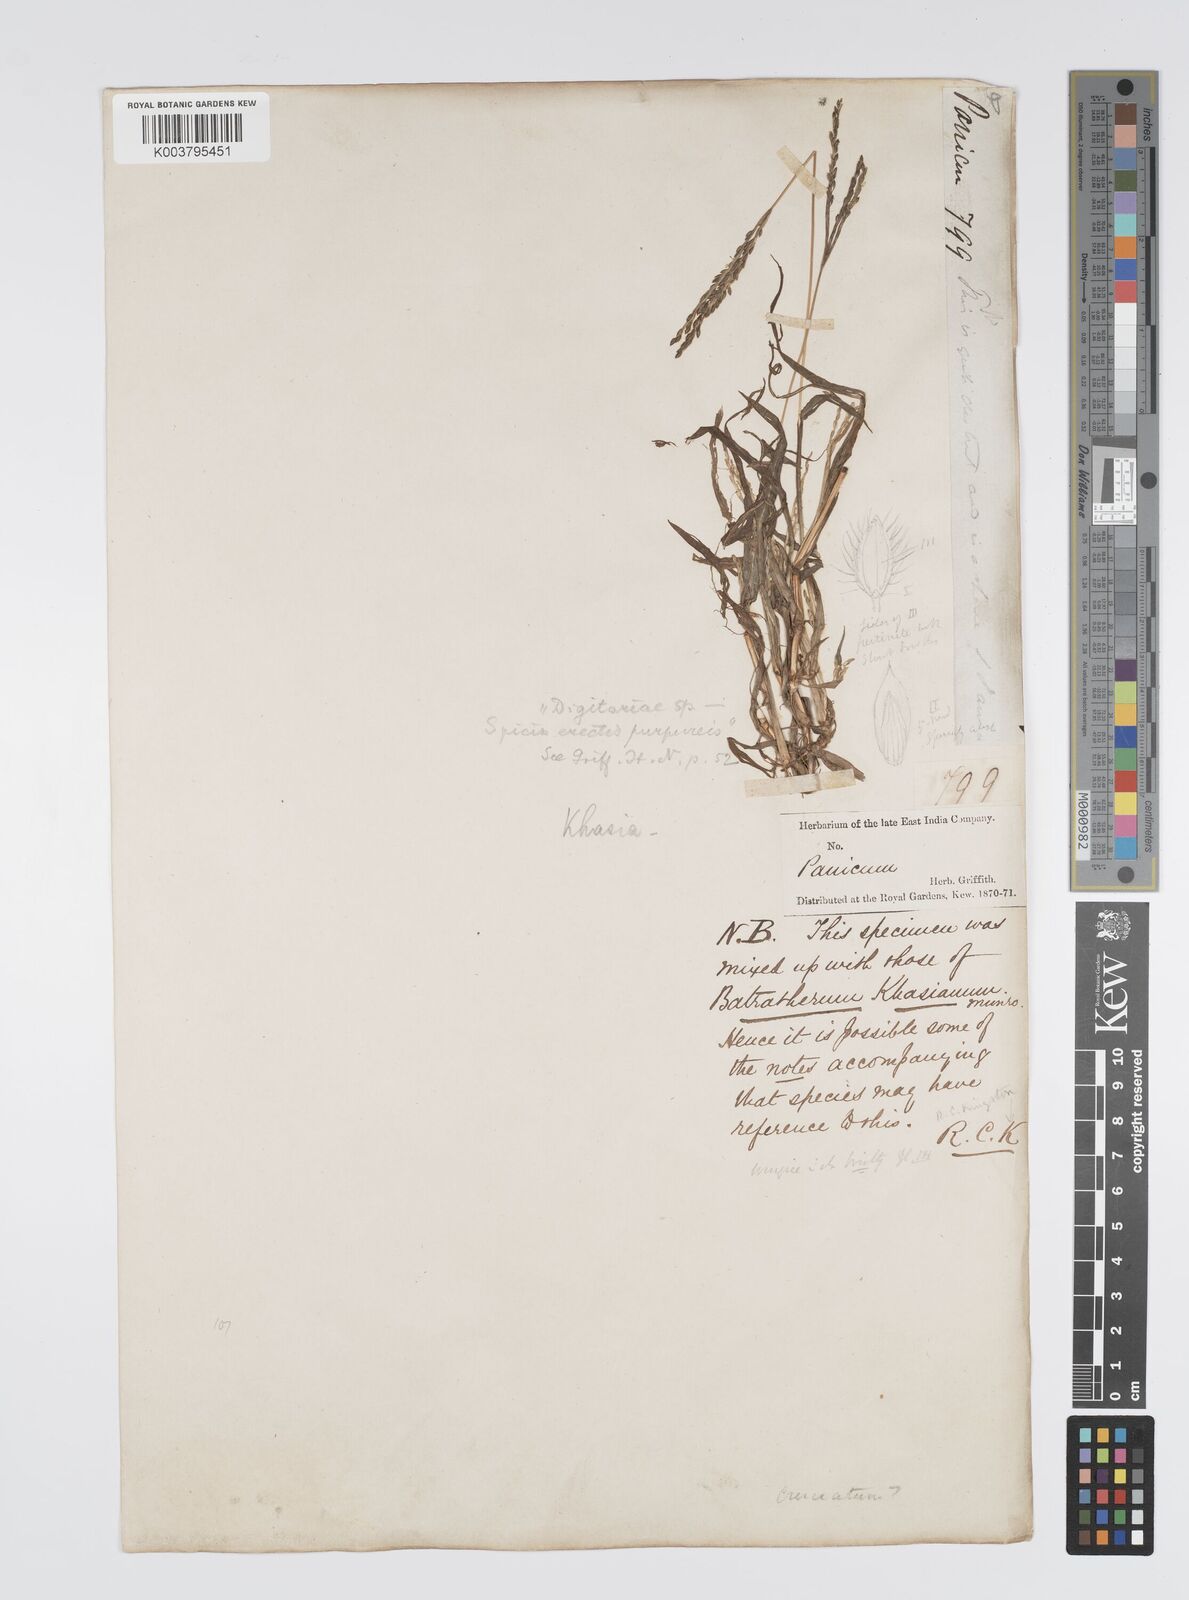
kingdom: Plantae
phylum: Tracheophyta
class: Liliopsida
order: Poales
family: Poaceae
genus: Digitaria
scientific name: Digitaria cruciata
